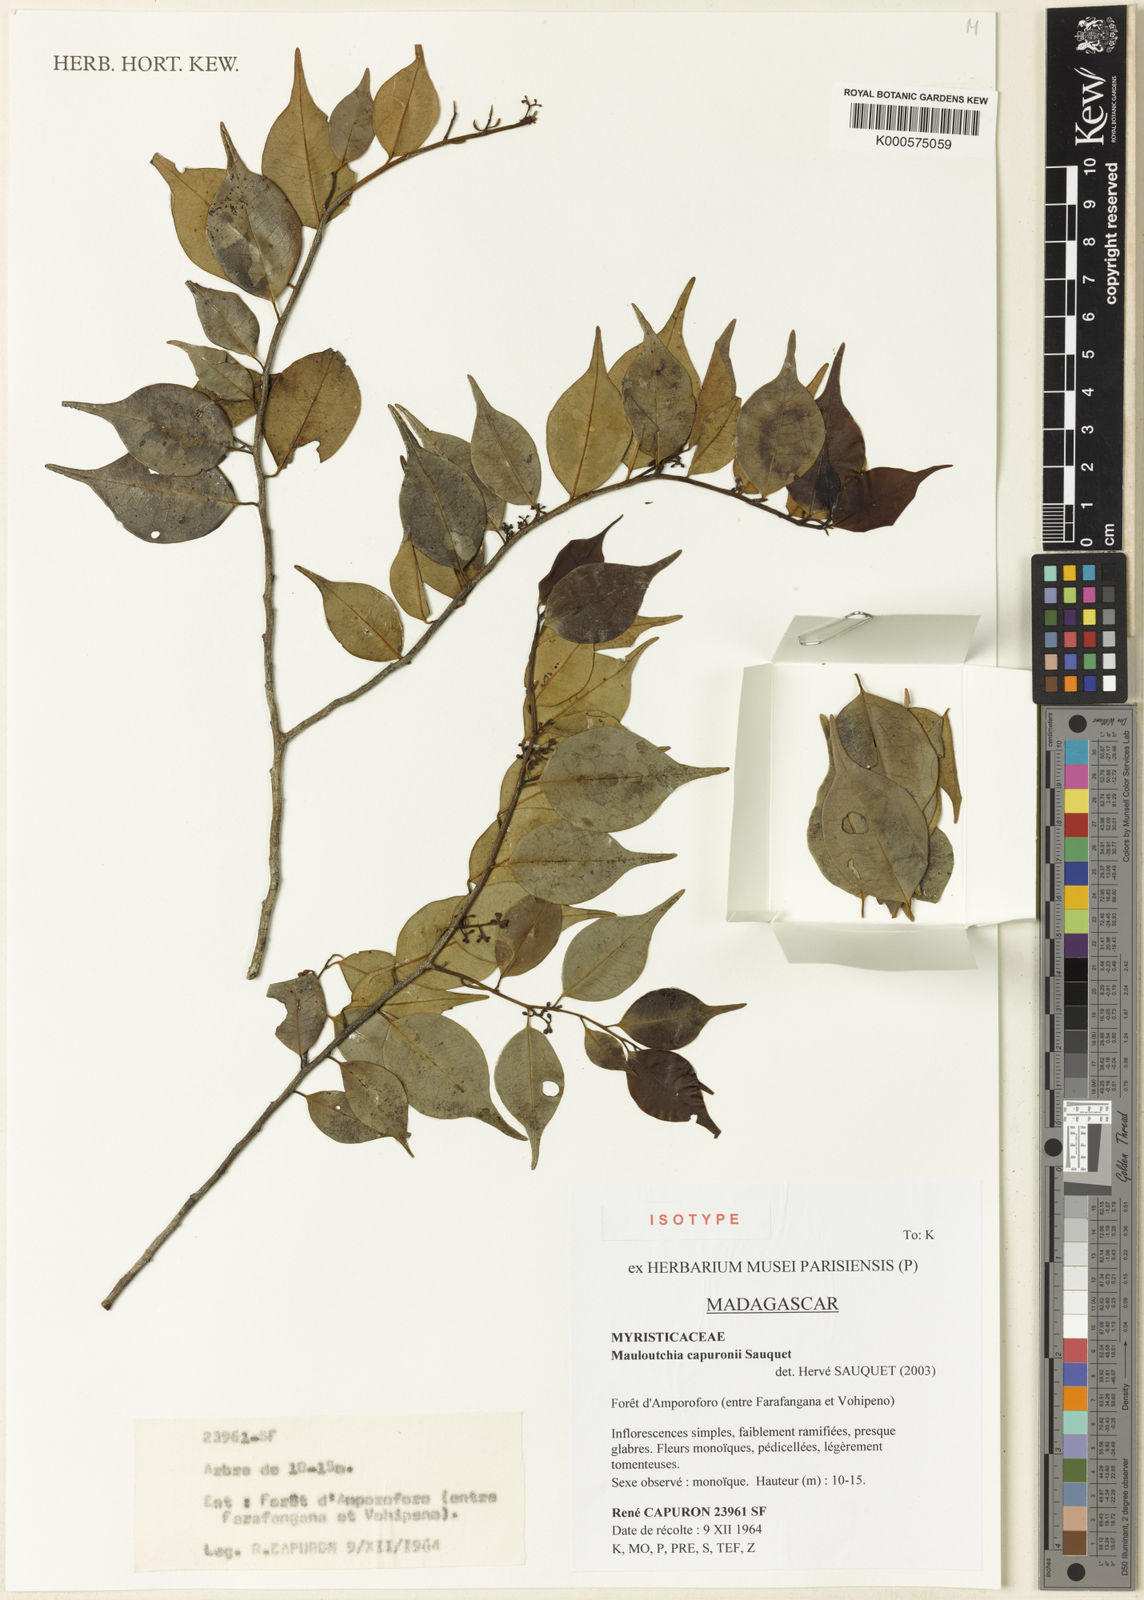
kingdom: Plantae
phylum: Tracheophyta
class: Magnoliopsida
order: Magnoliales
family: Myristicaceae
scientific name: Myristicaceae
